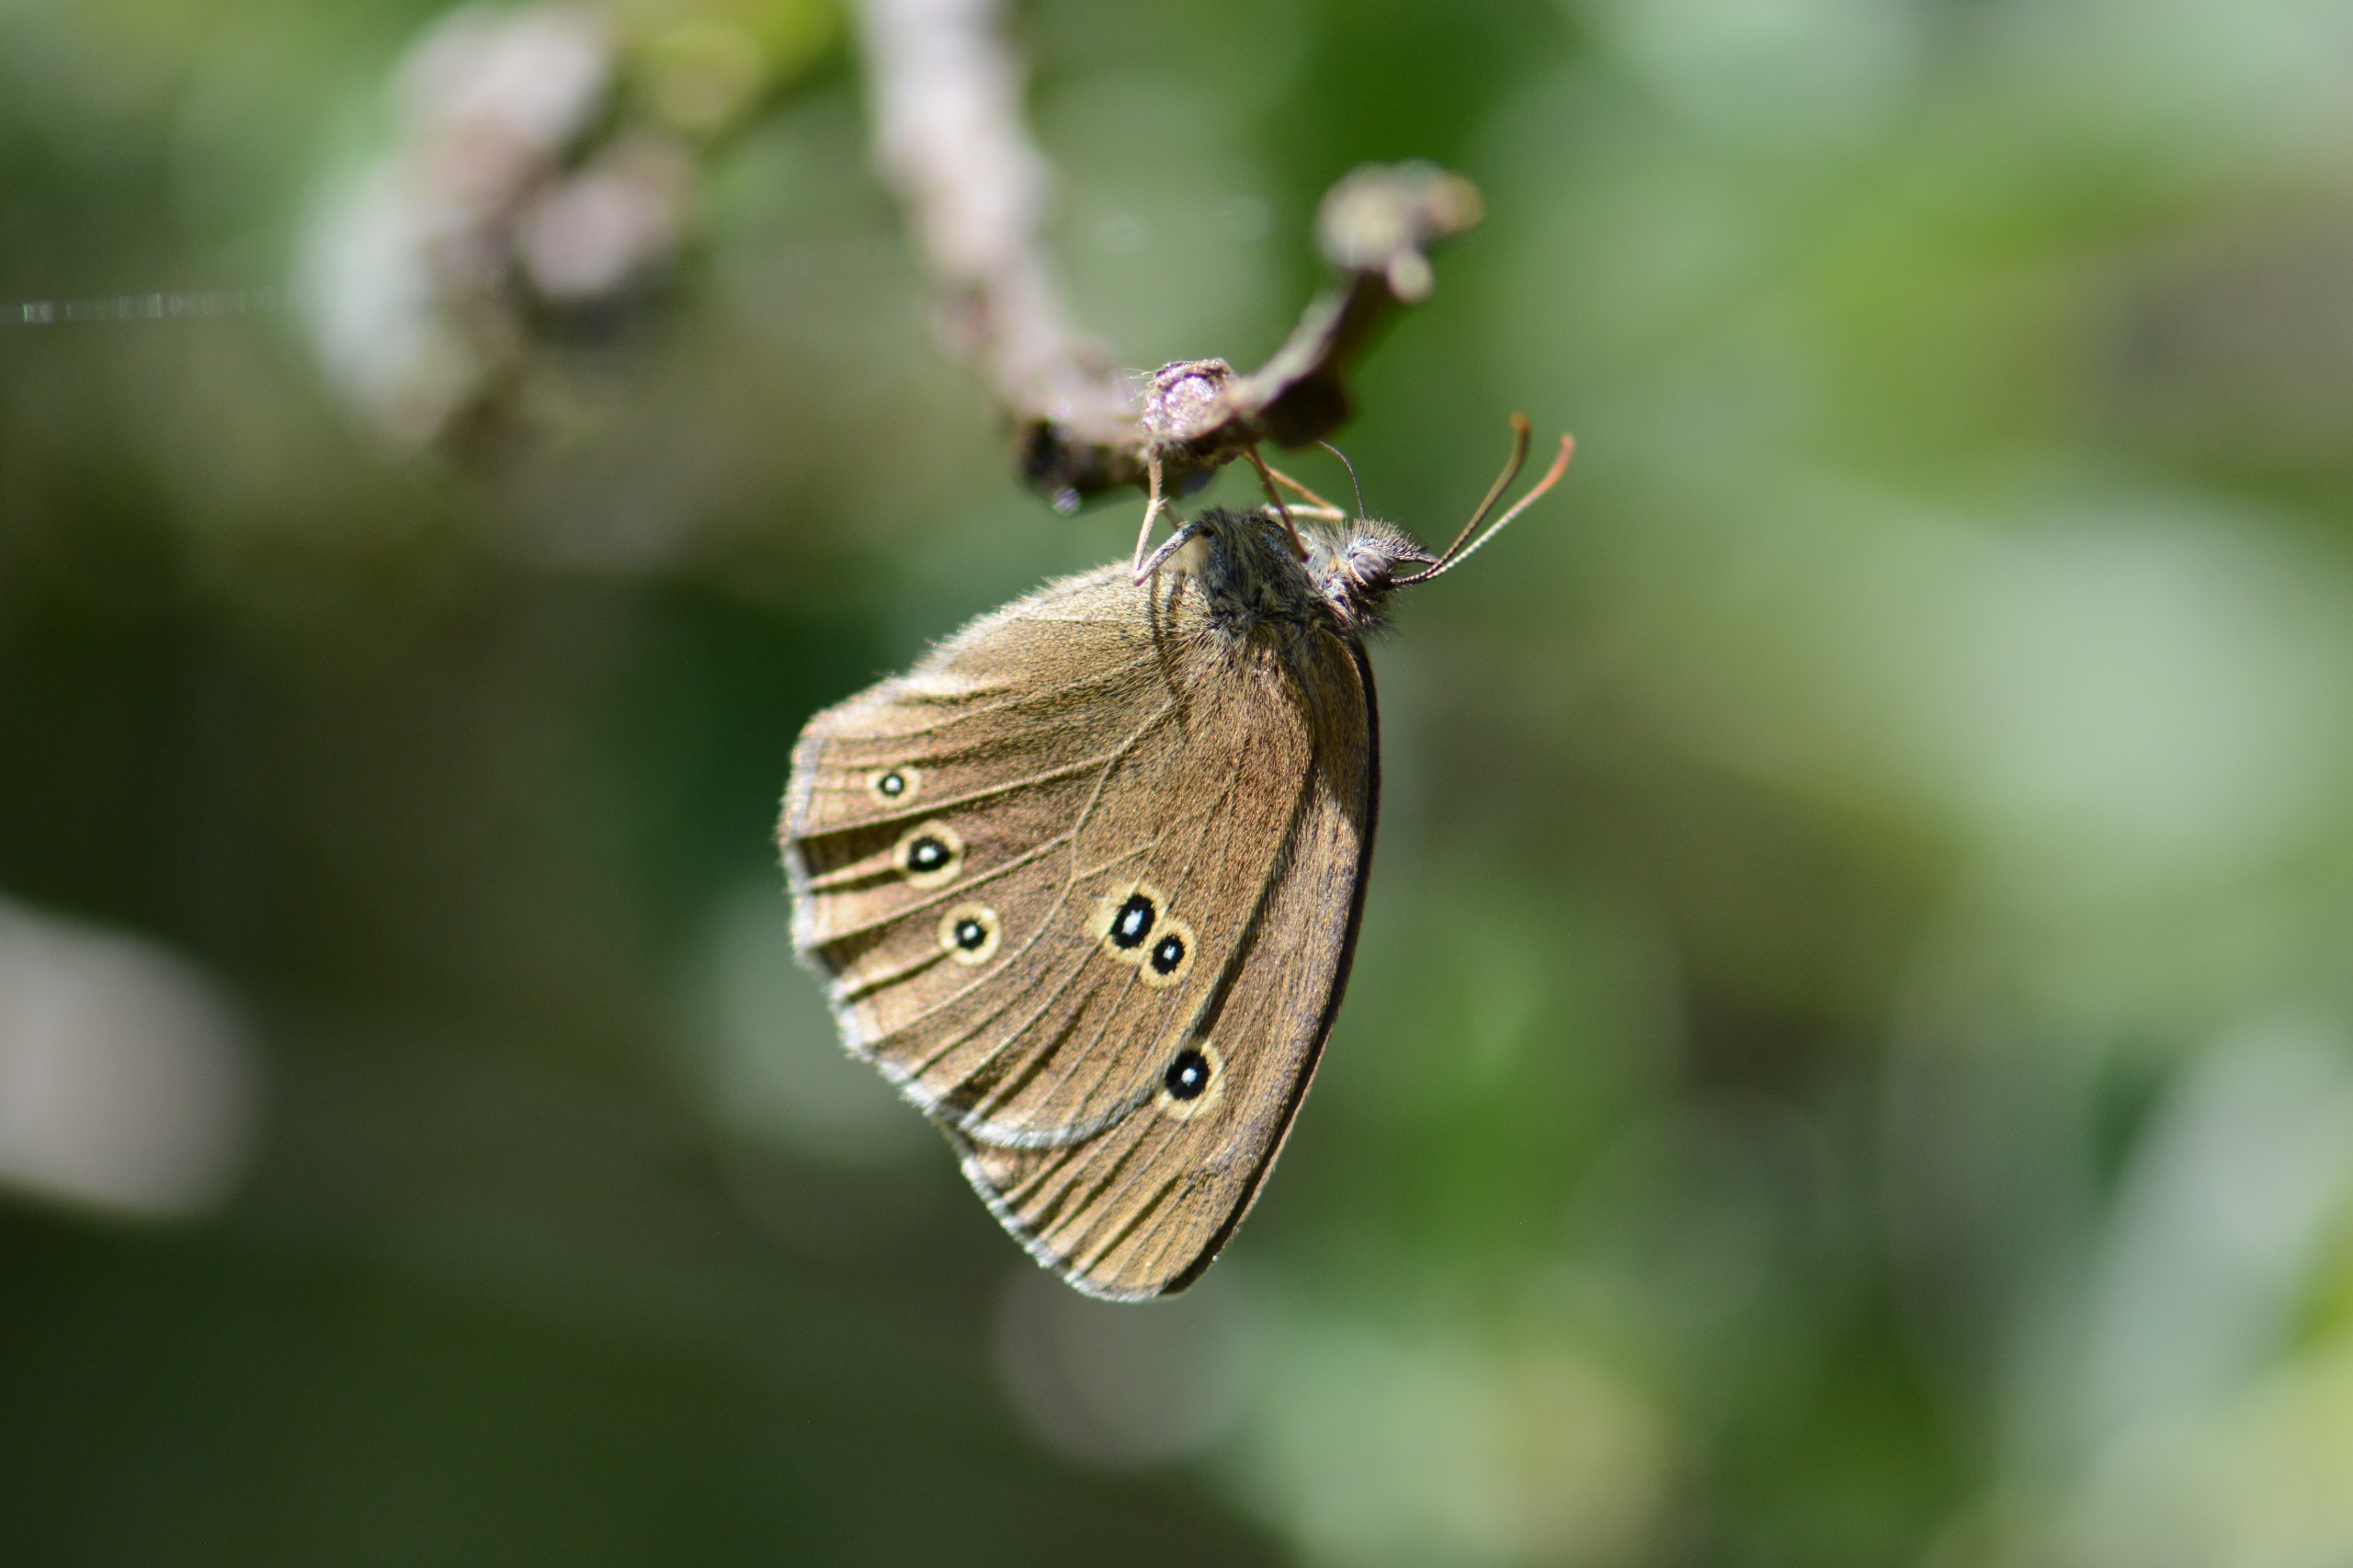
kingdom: Animalia
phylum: Arthropoda
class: Insecta
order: Lepidoptera
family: Nymphalidae
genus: Aphantopus
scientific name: Aphantopus hyperantus
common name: Engrandøje
